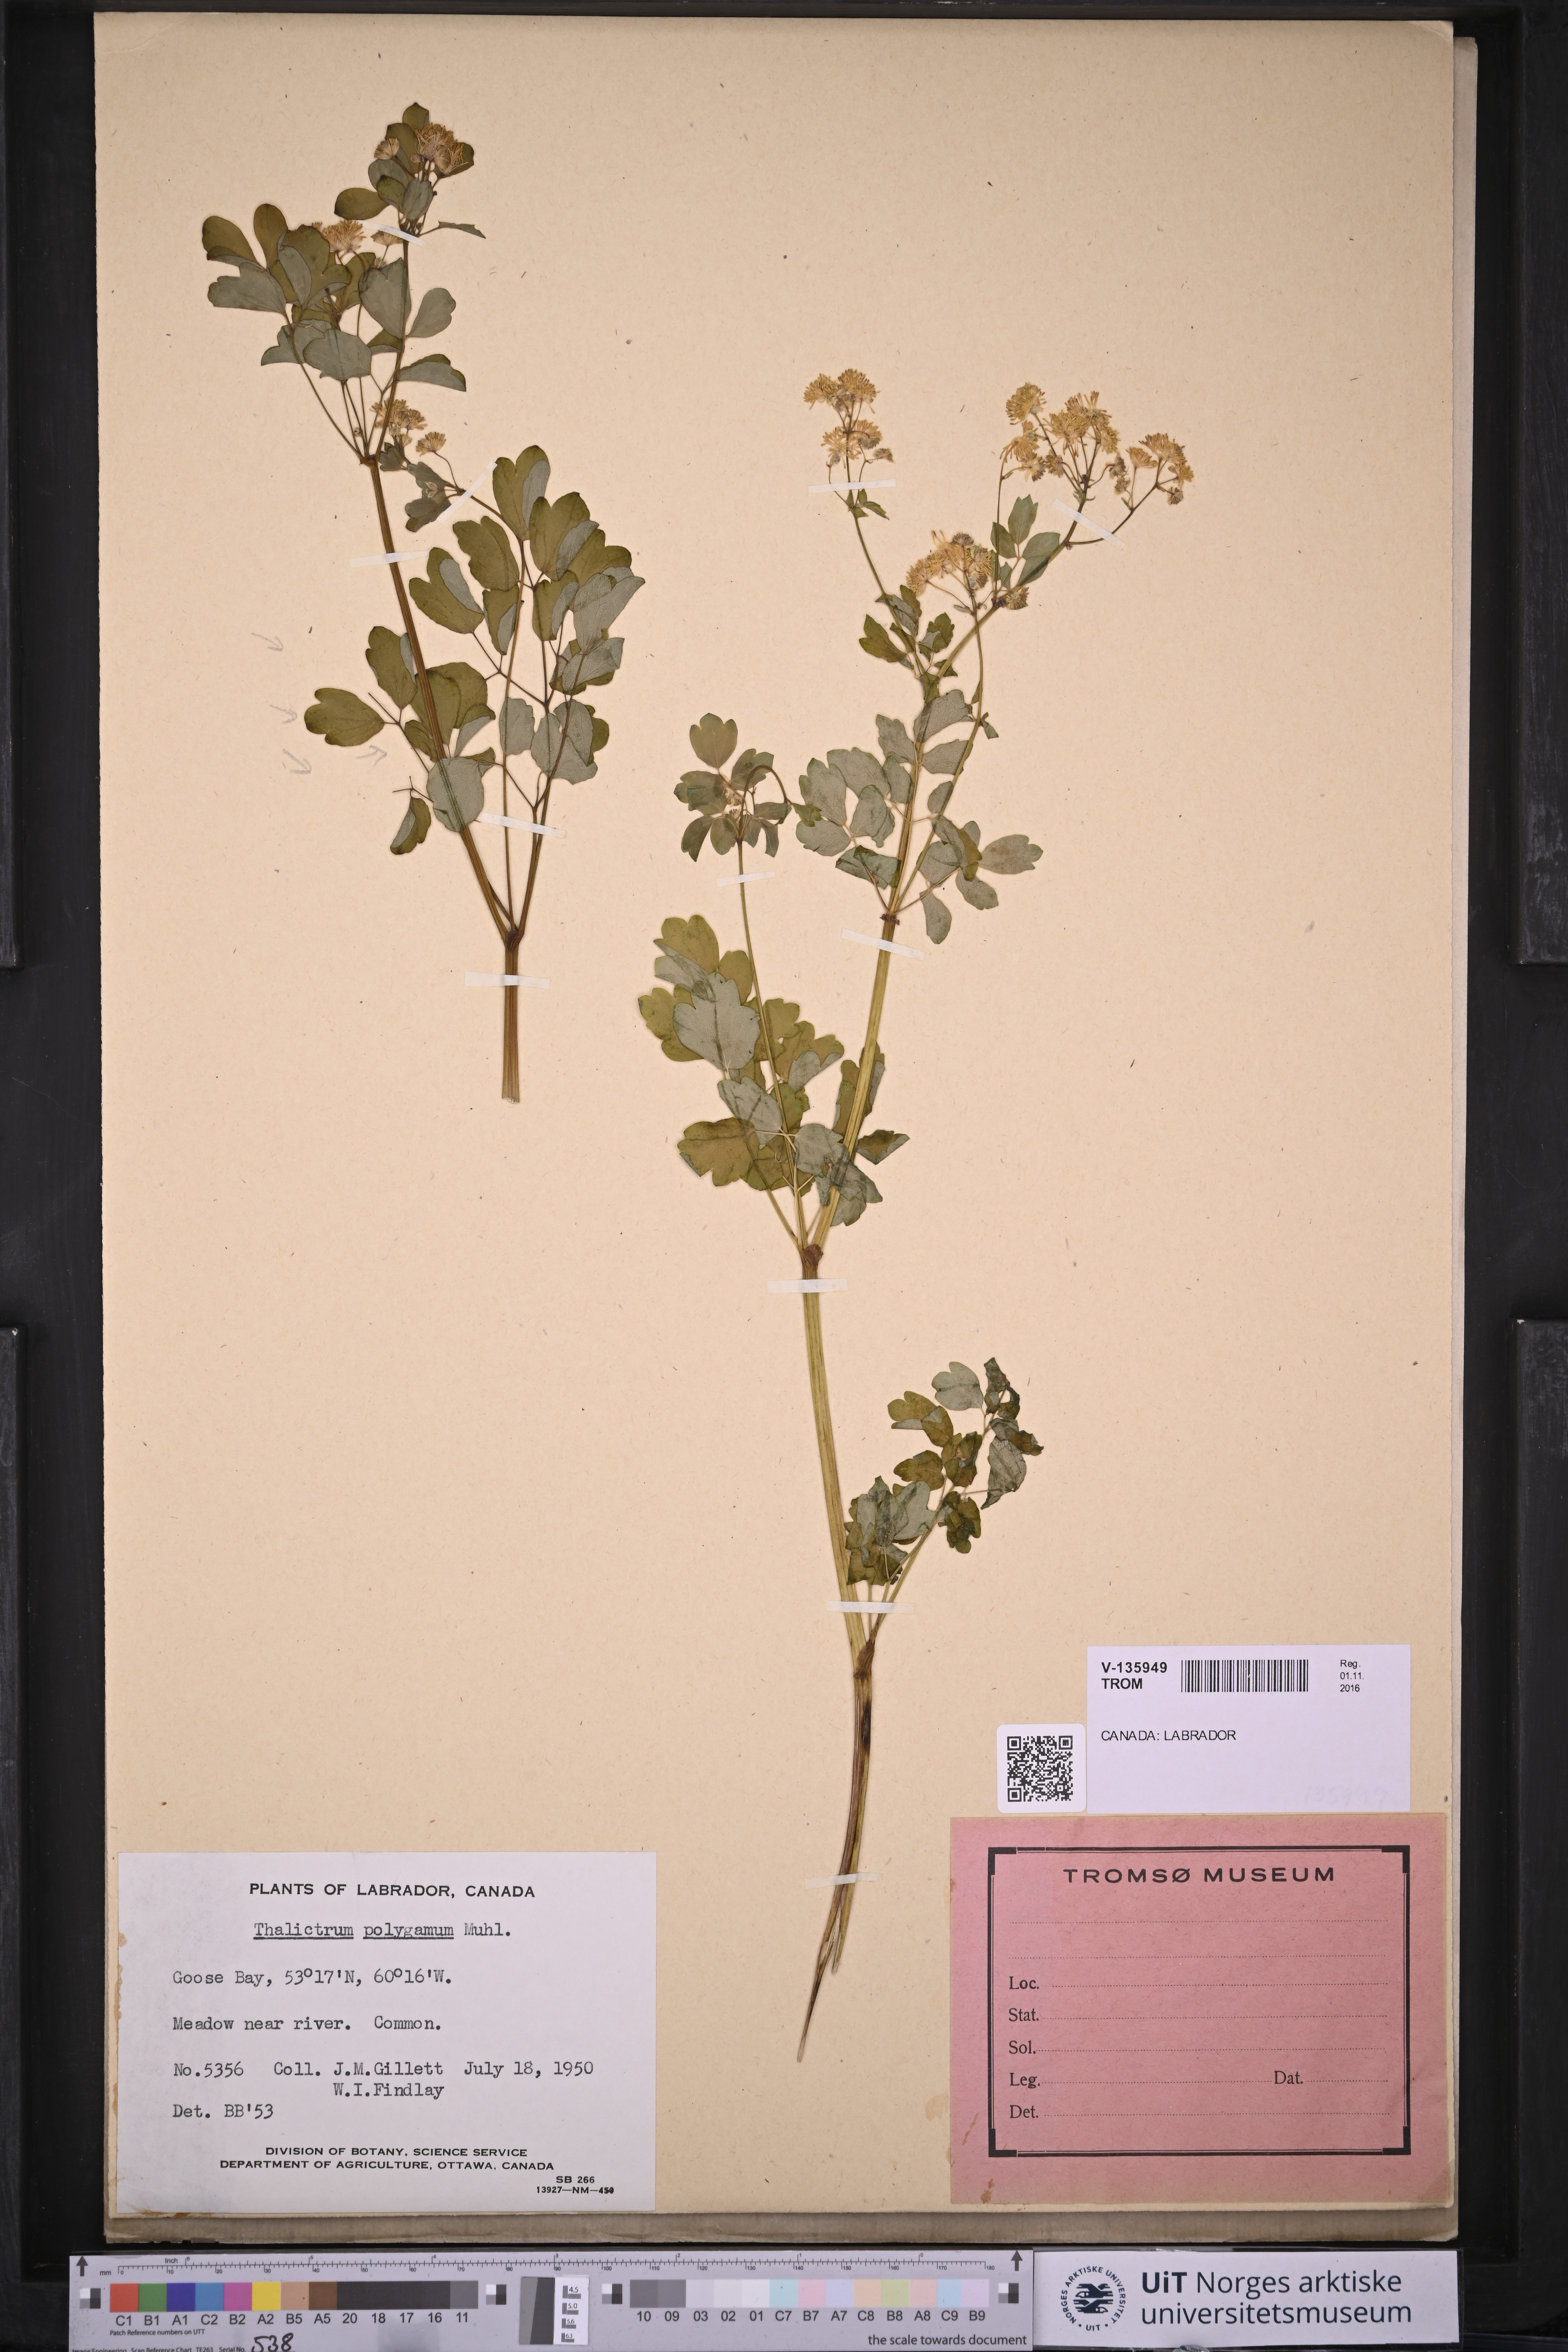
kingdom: Plantae
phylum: Tracheophyta
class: Magnoliopsida
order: Ranunculales
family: Ranunculaceae
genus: Thalictrum
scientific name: Thalictrum pubescens
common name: King-of-the-meadow
